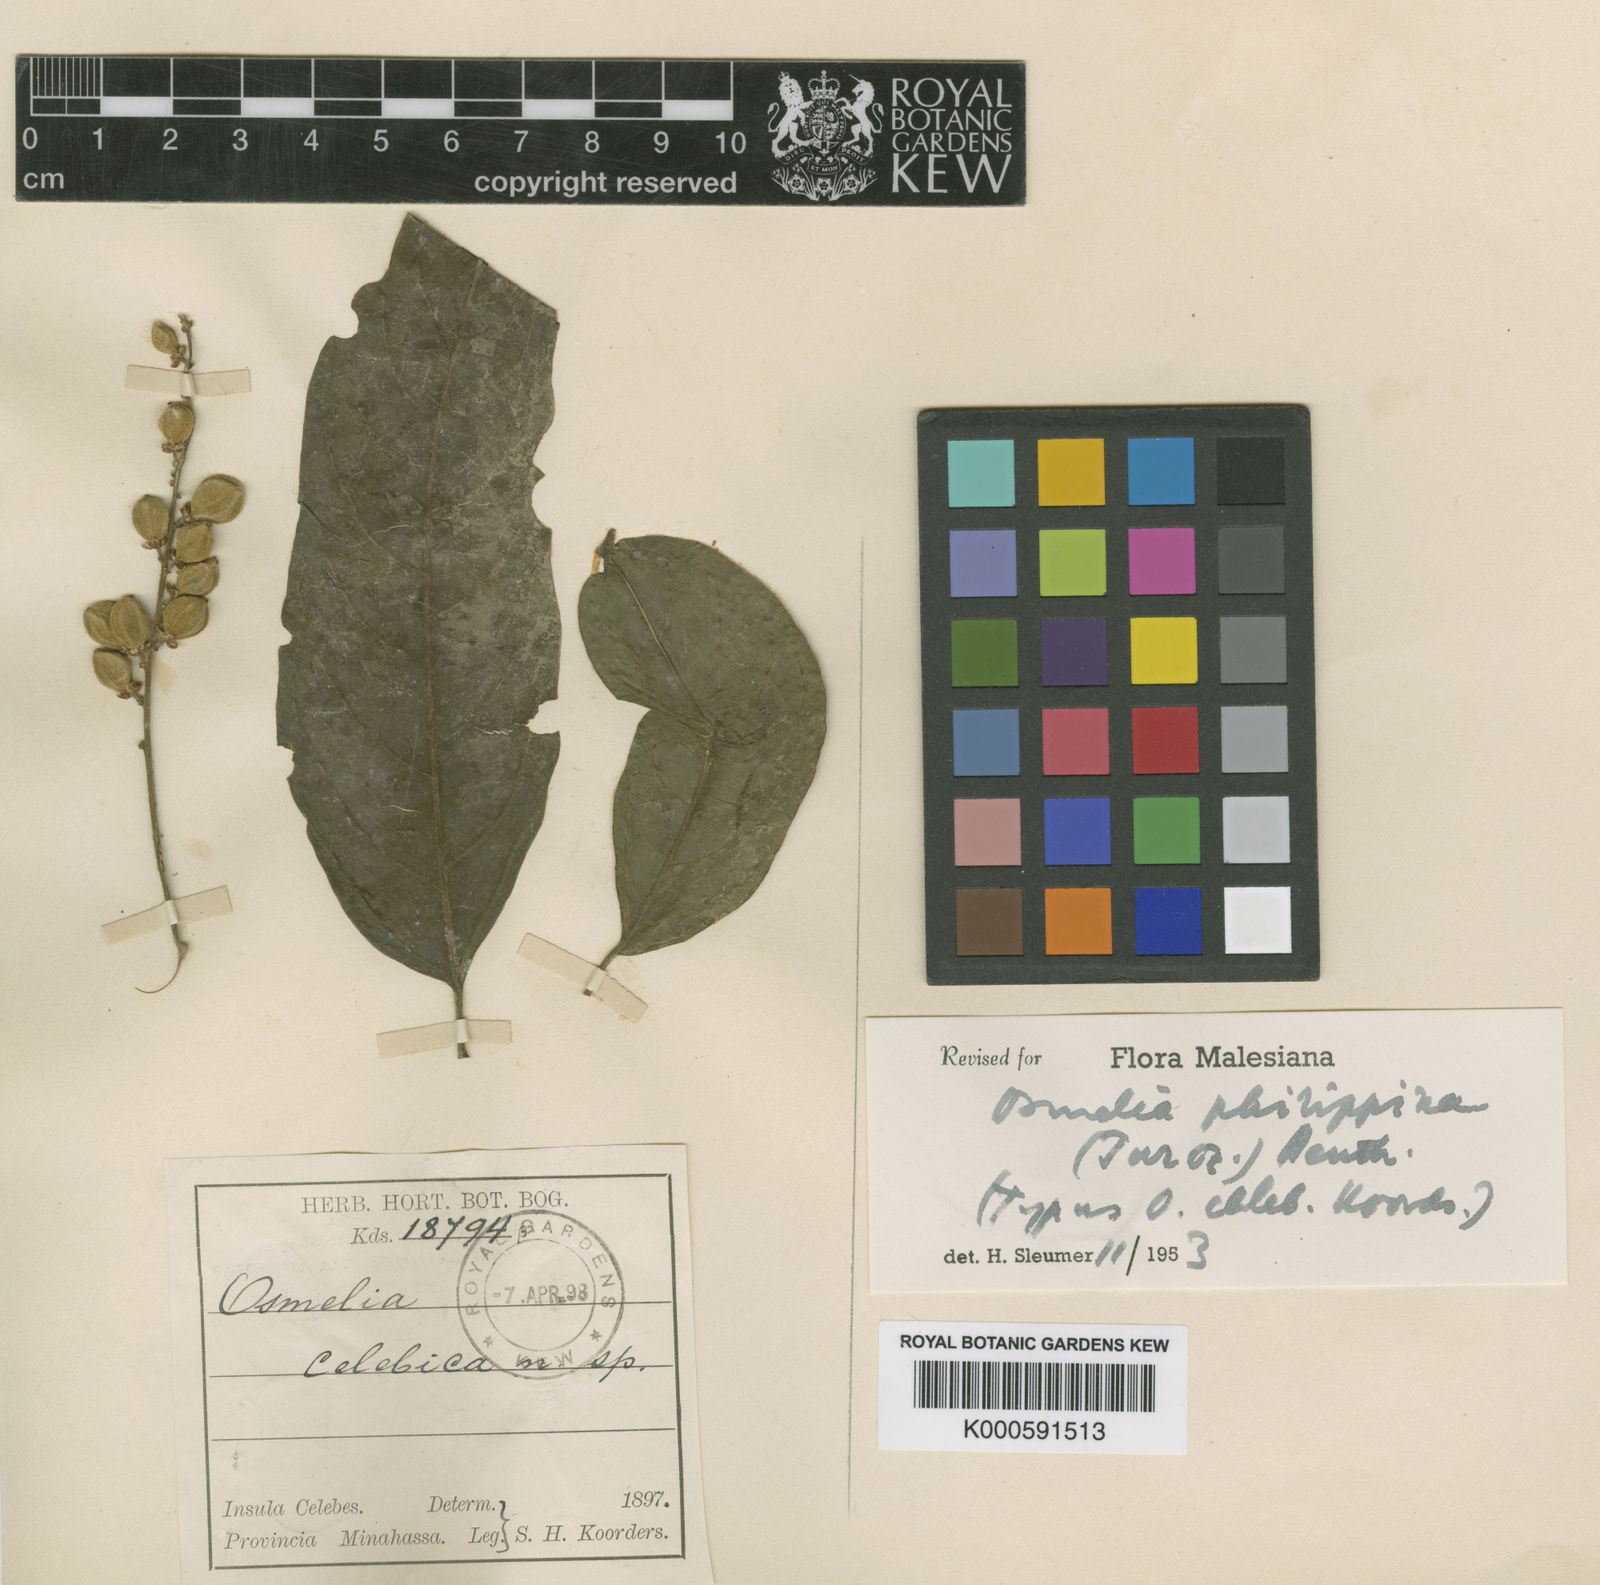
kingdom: Plantae
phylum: Tracheophyta
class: Magnoliopsida
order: Malpighiales
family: Salicaceae
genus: Osmelia
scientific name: Osmelia
